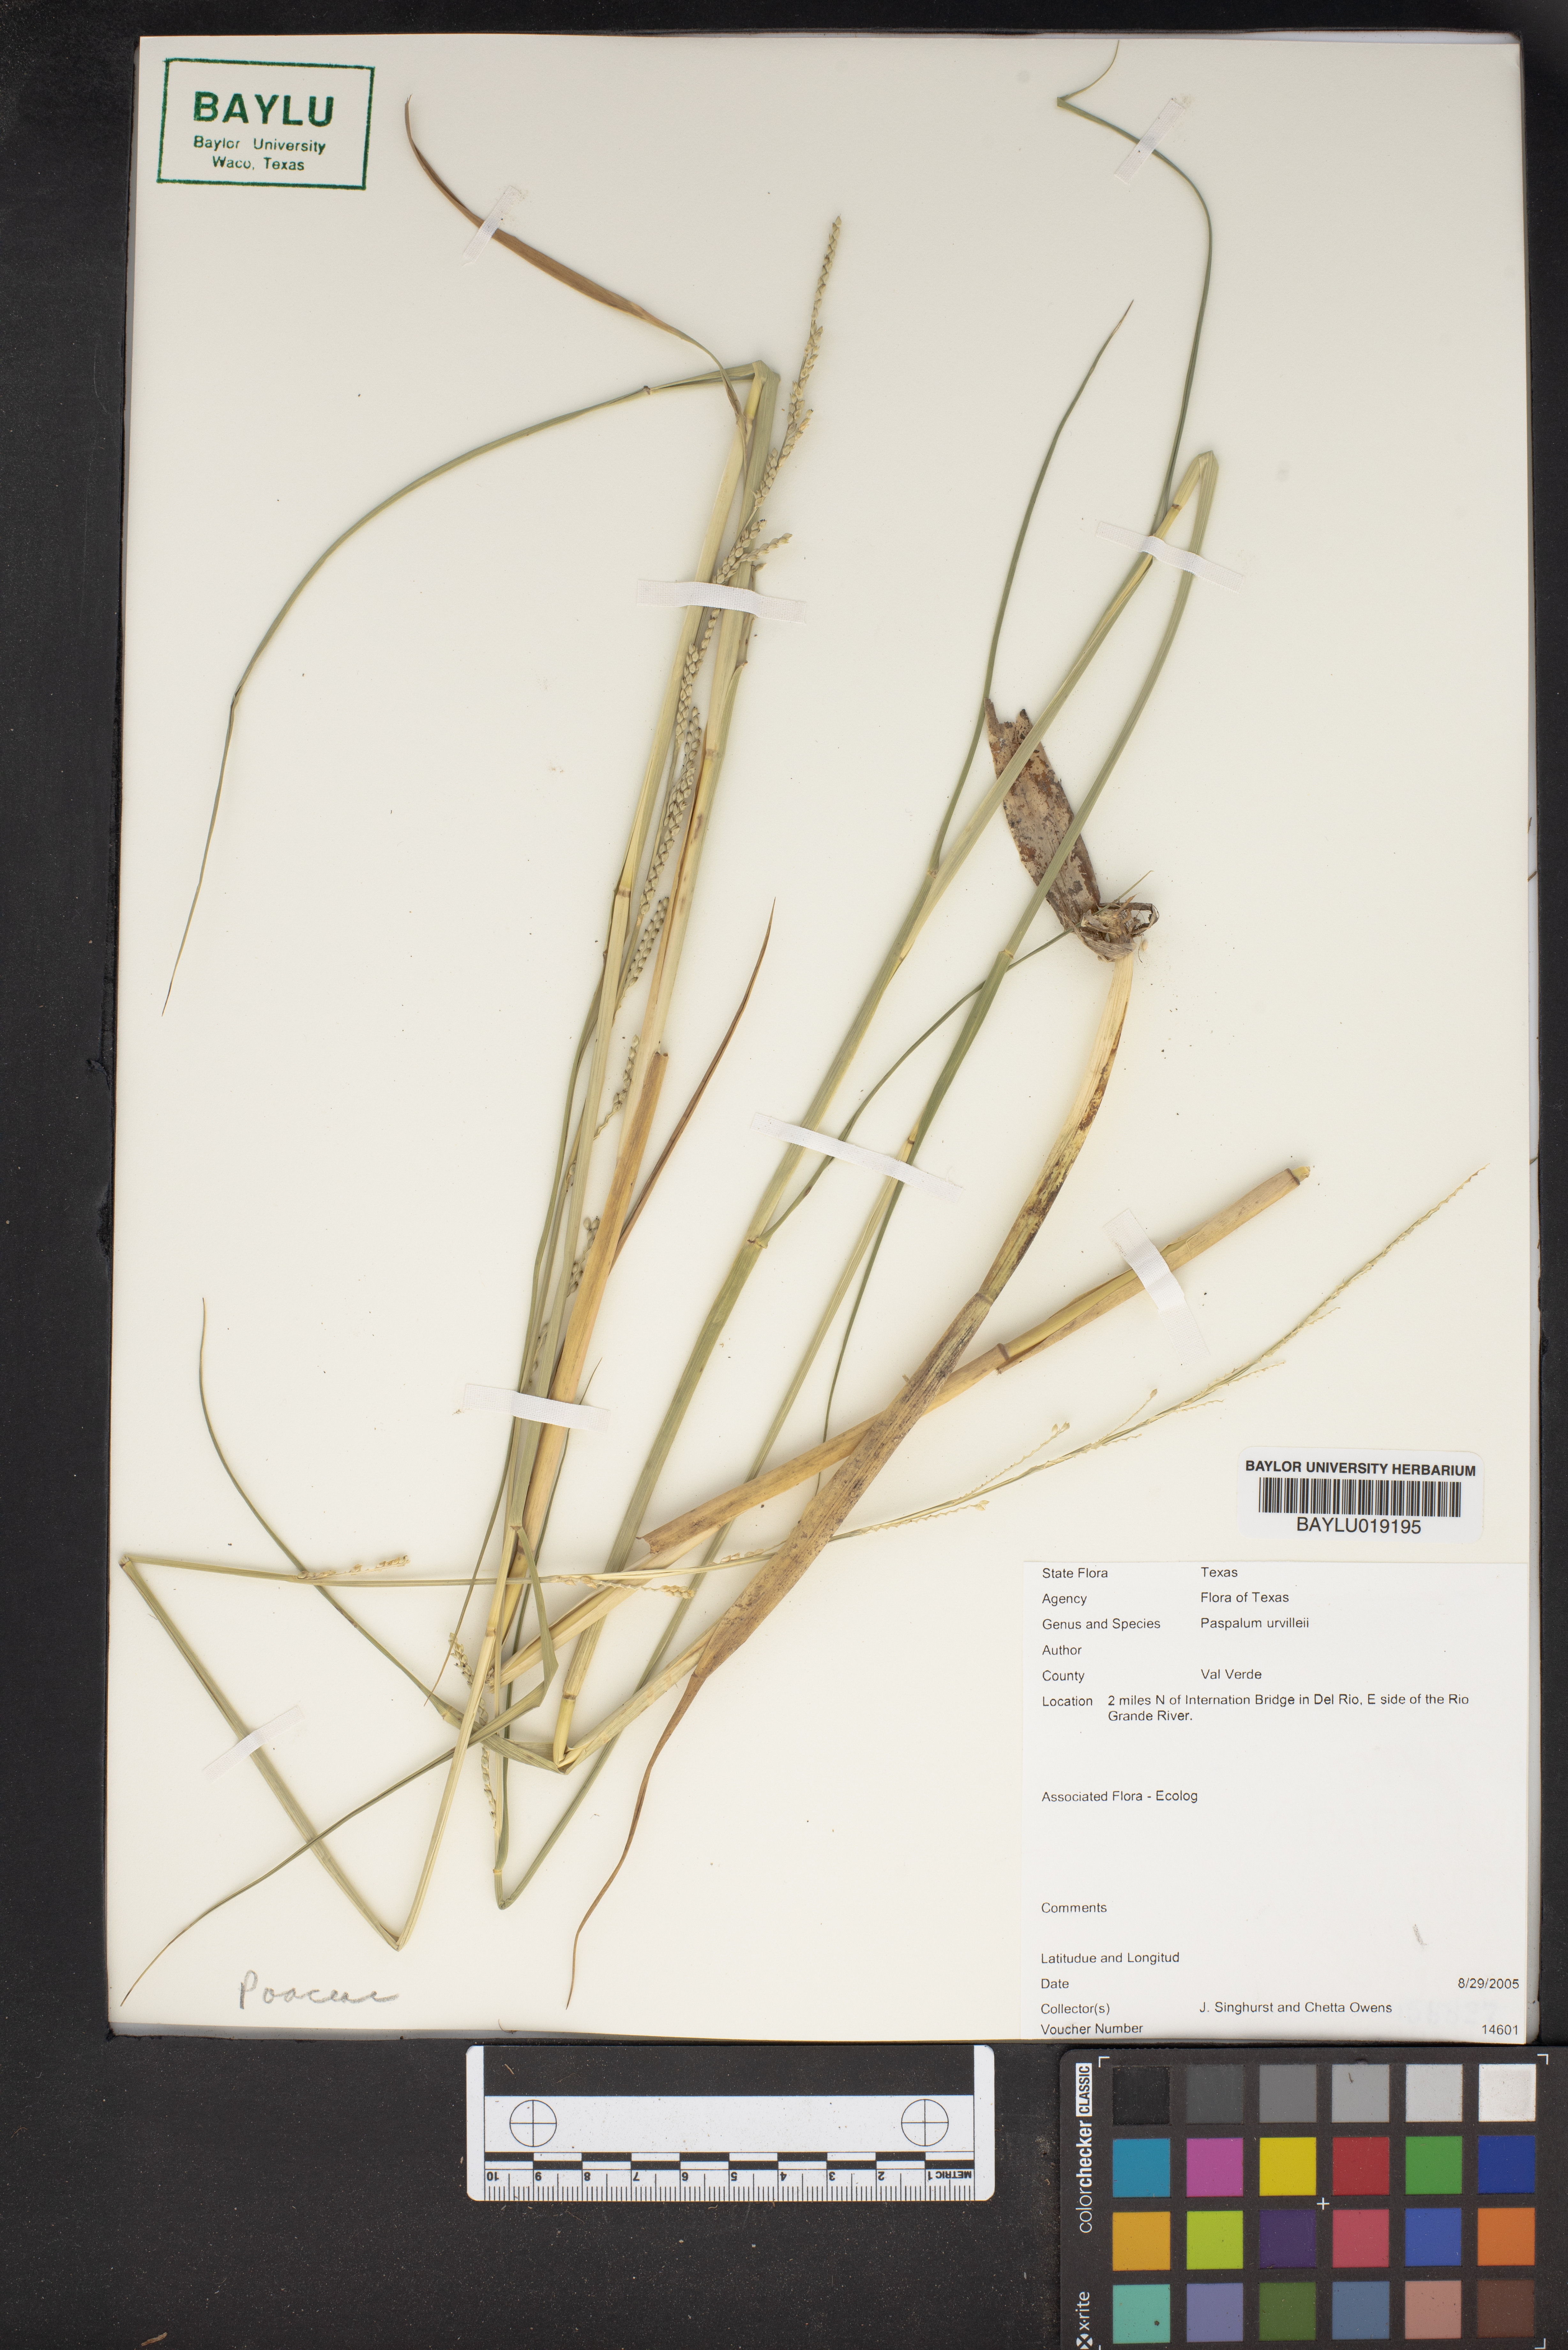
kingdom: Plantae
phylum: Tracheophyta
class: Liliopsida
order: Poales
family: Poaceae
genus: Paspalum
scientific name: Paspalum urvillei
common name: Vasey's grass
